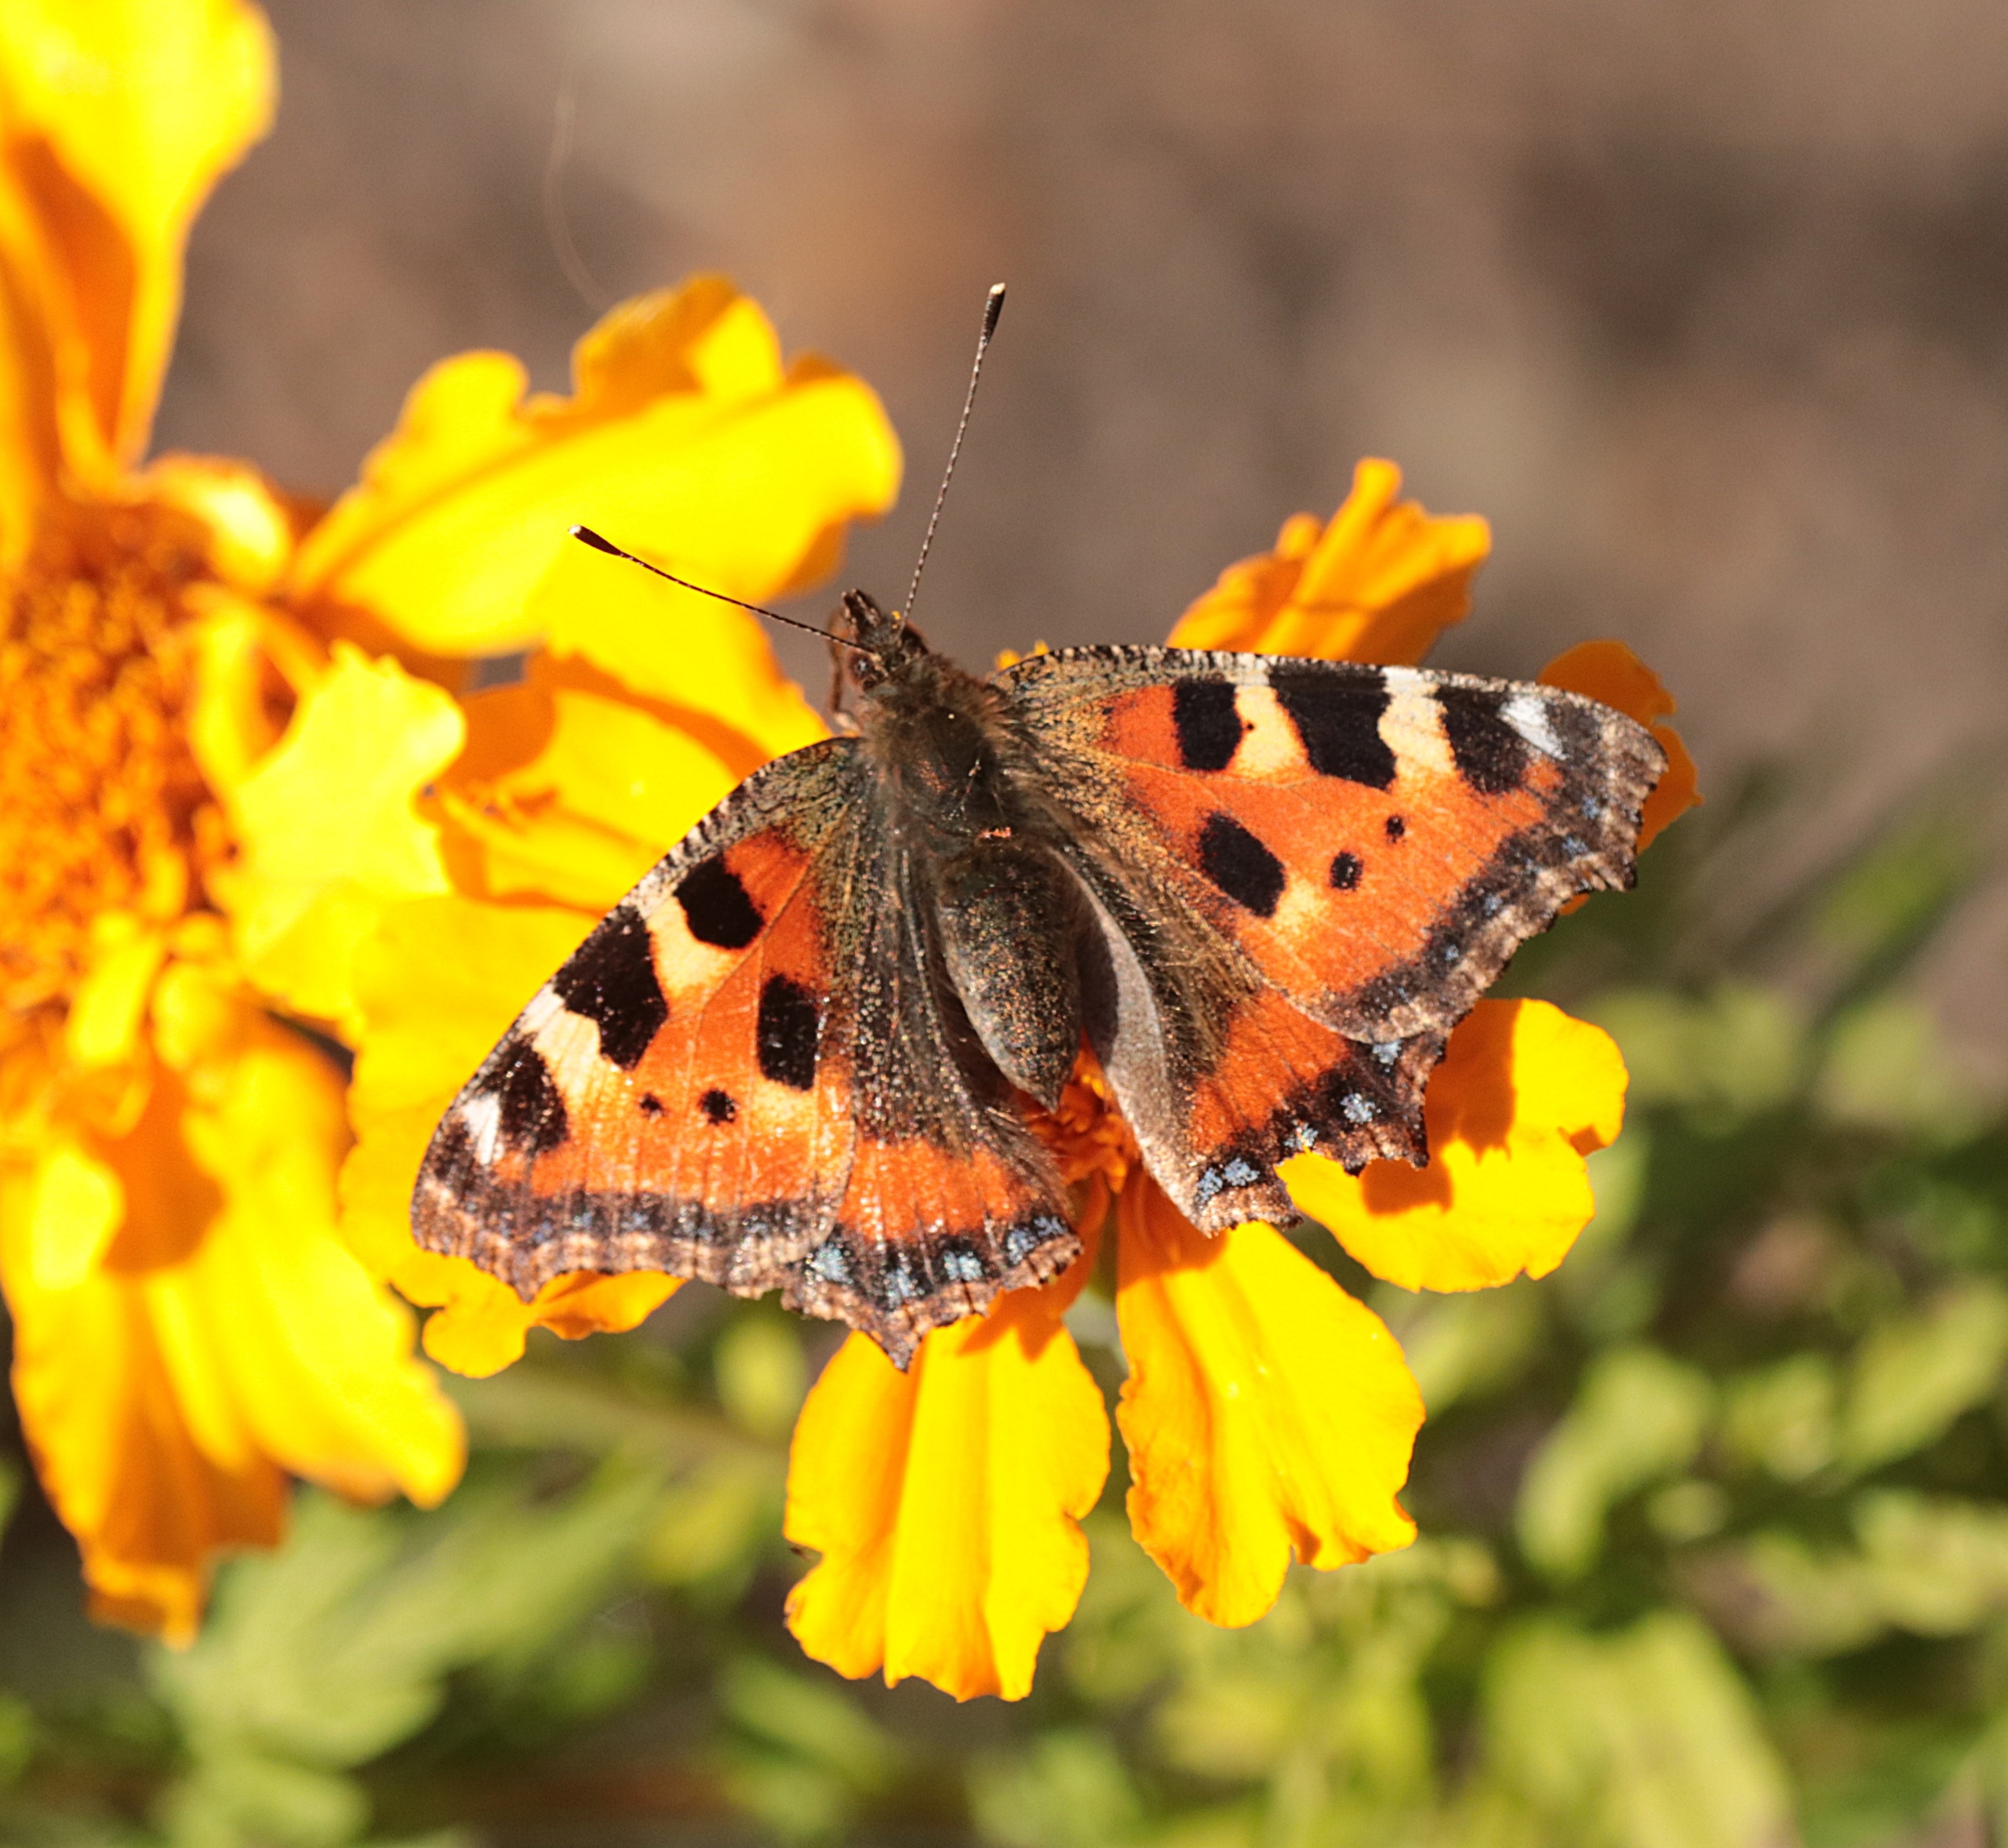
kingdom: Animalia
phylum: Arthropoda
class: Insecta
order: Lepidoptera
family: Nymphalidae
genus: Aglais
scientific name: Aglais urticae
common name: Nældens takvinge
